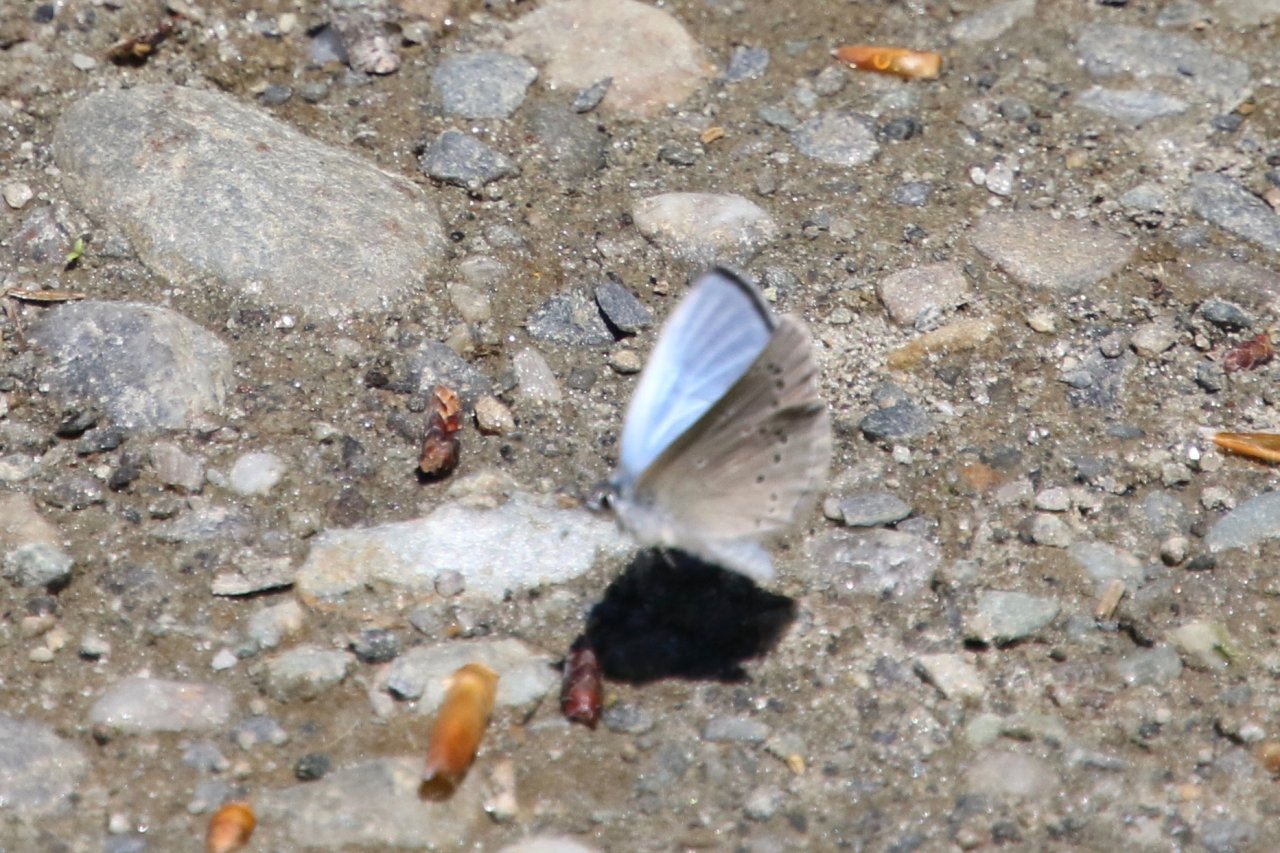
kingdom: Animalia
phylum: Arthropoda
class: Insecta
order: Lepidoptera
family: Lycaenidae
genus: Glaucopsyche
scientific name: Glaucopsyche lygdamus
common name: Silvery Blue
